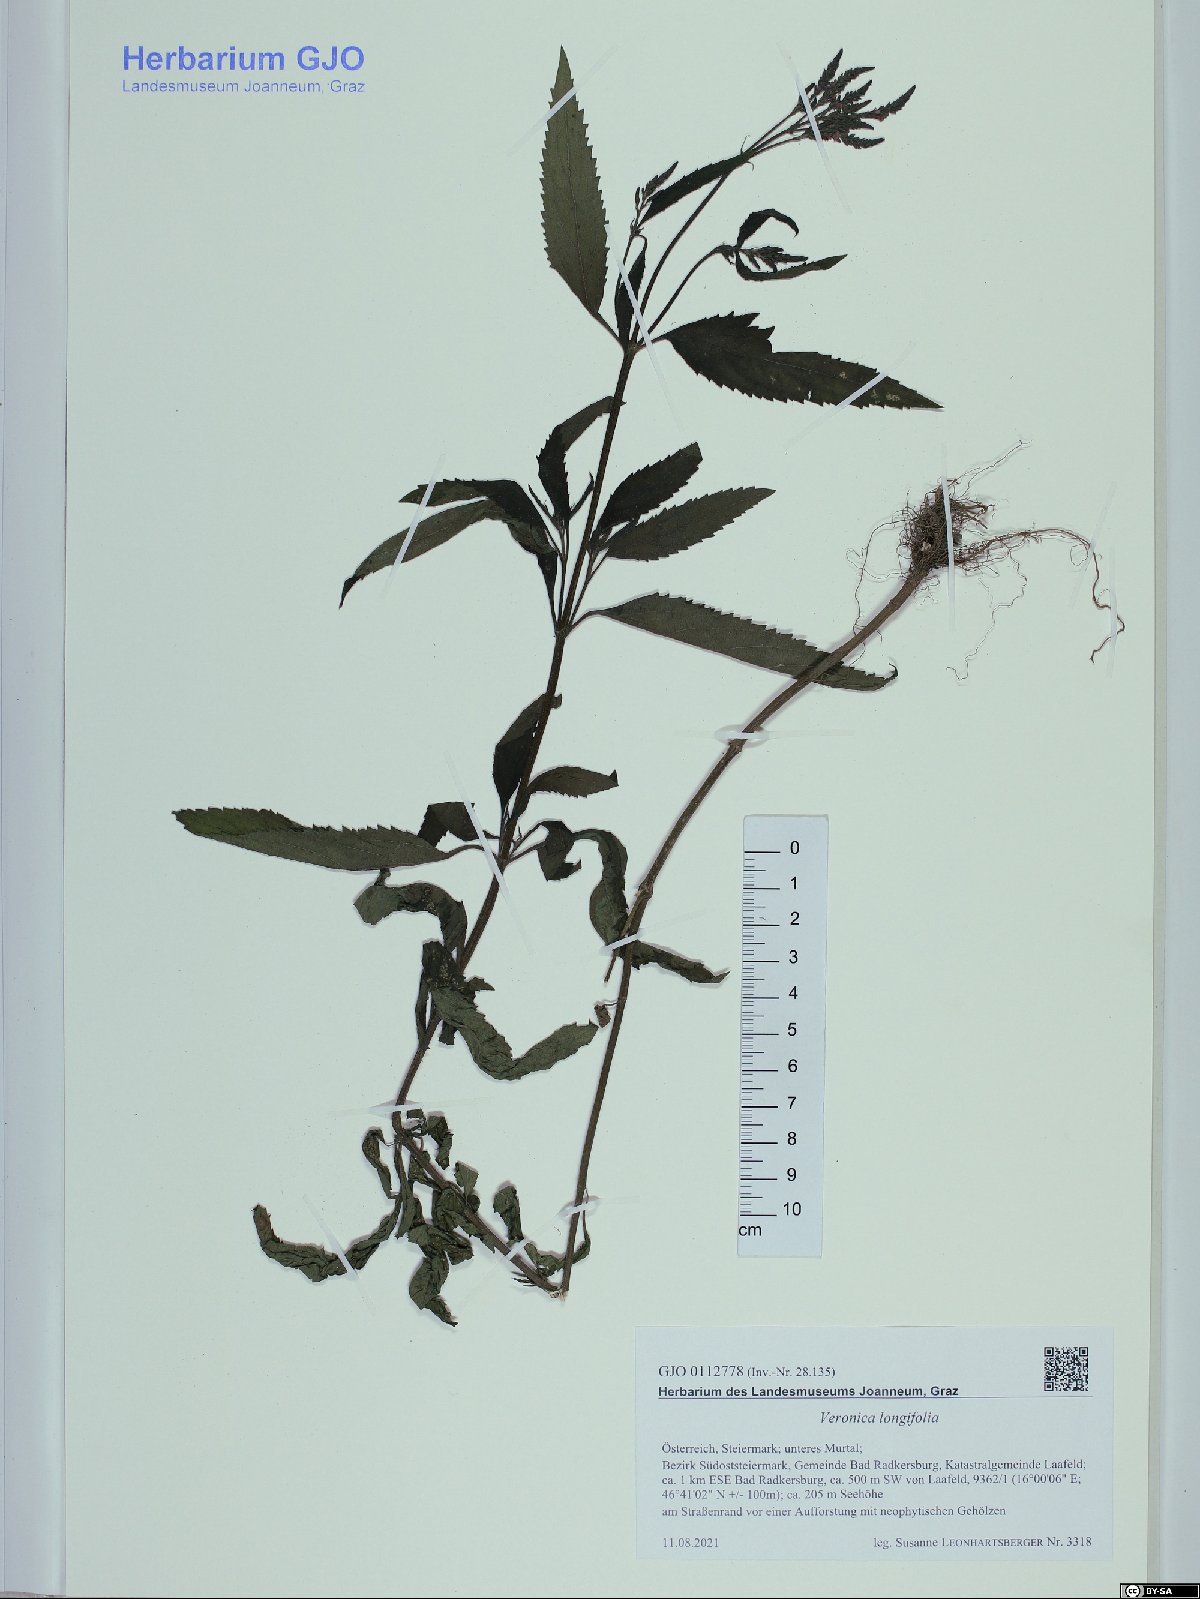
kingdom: Plantae
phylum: Tracheophyta
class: Magnoliopsida
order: Lamiales
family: Plantaginaceae
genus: Veronica
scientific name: Veronica longifolia
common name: Garden speedwell
